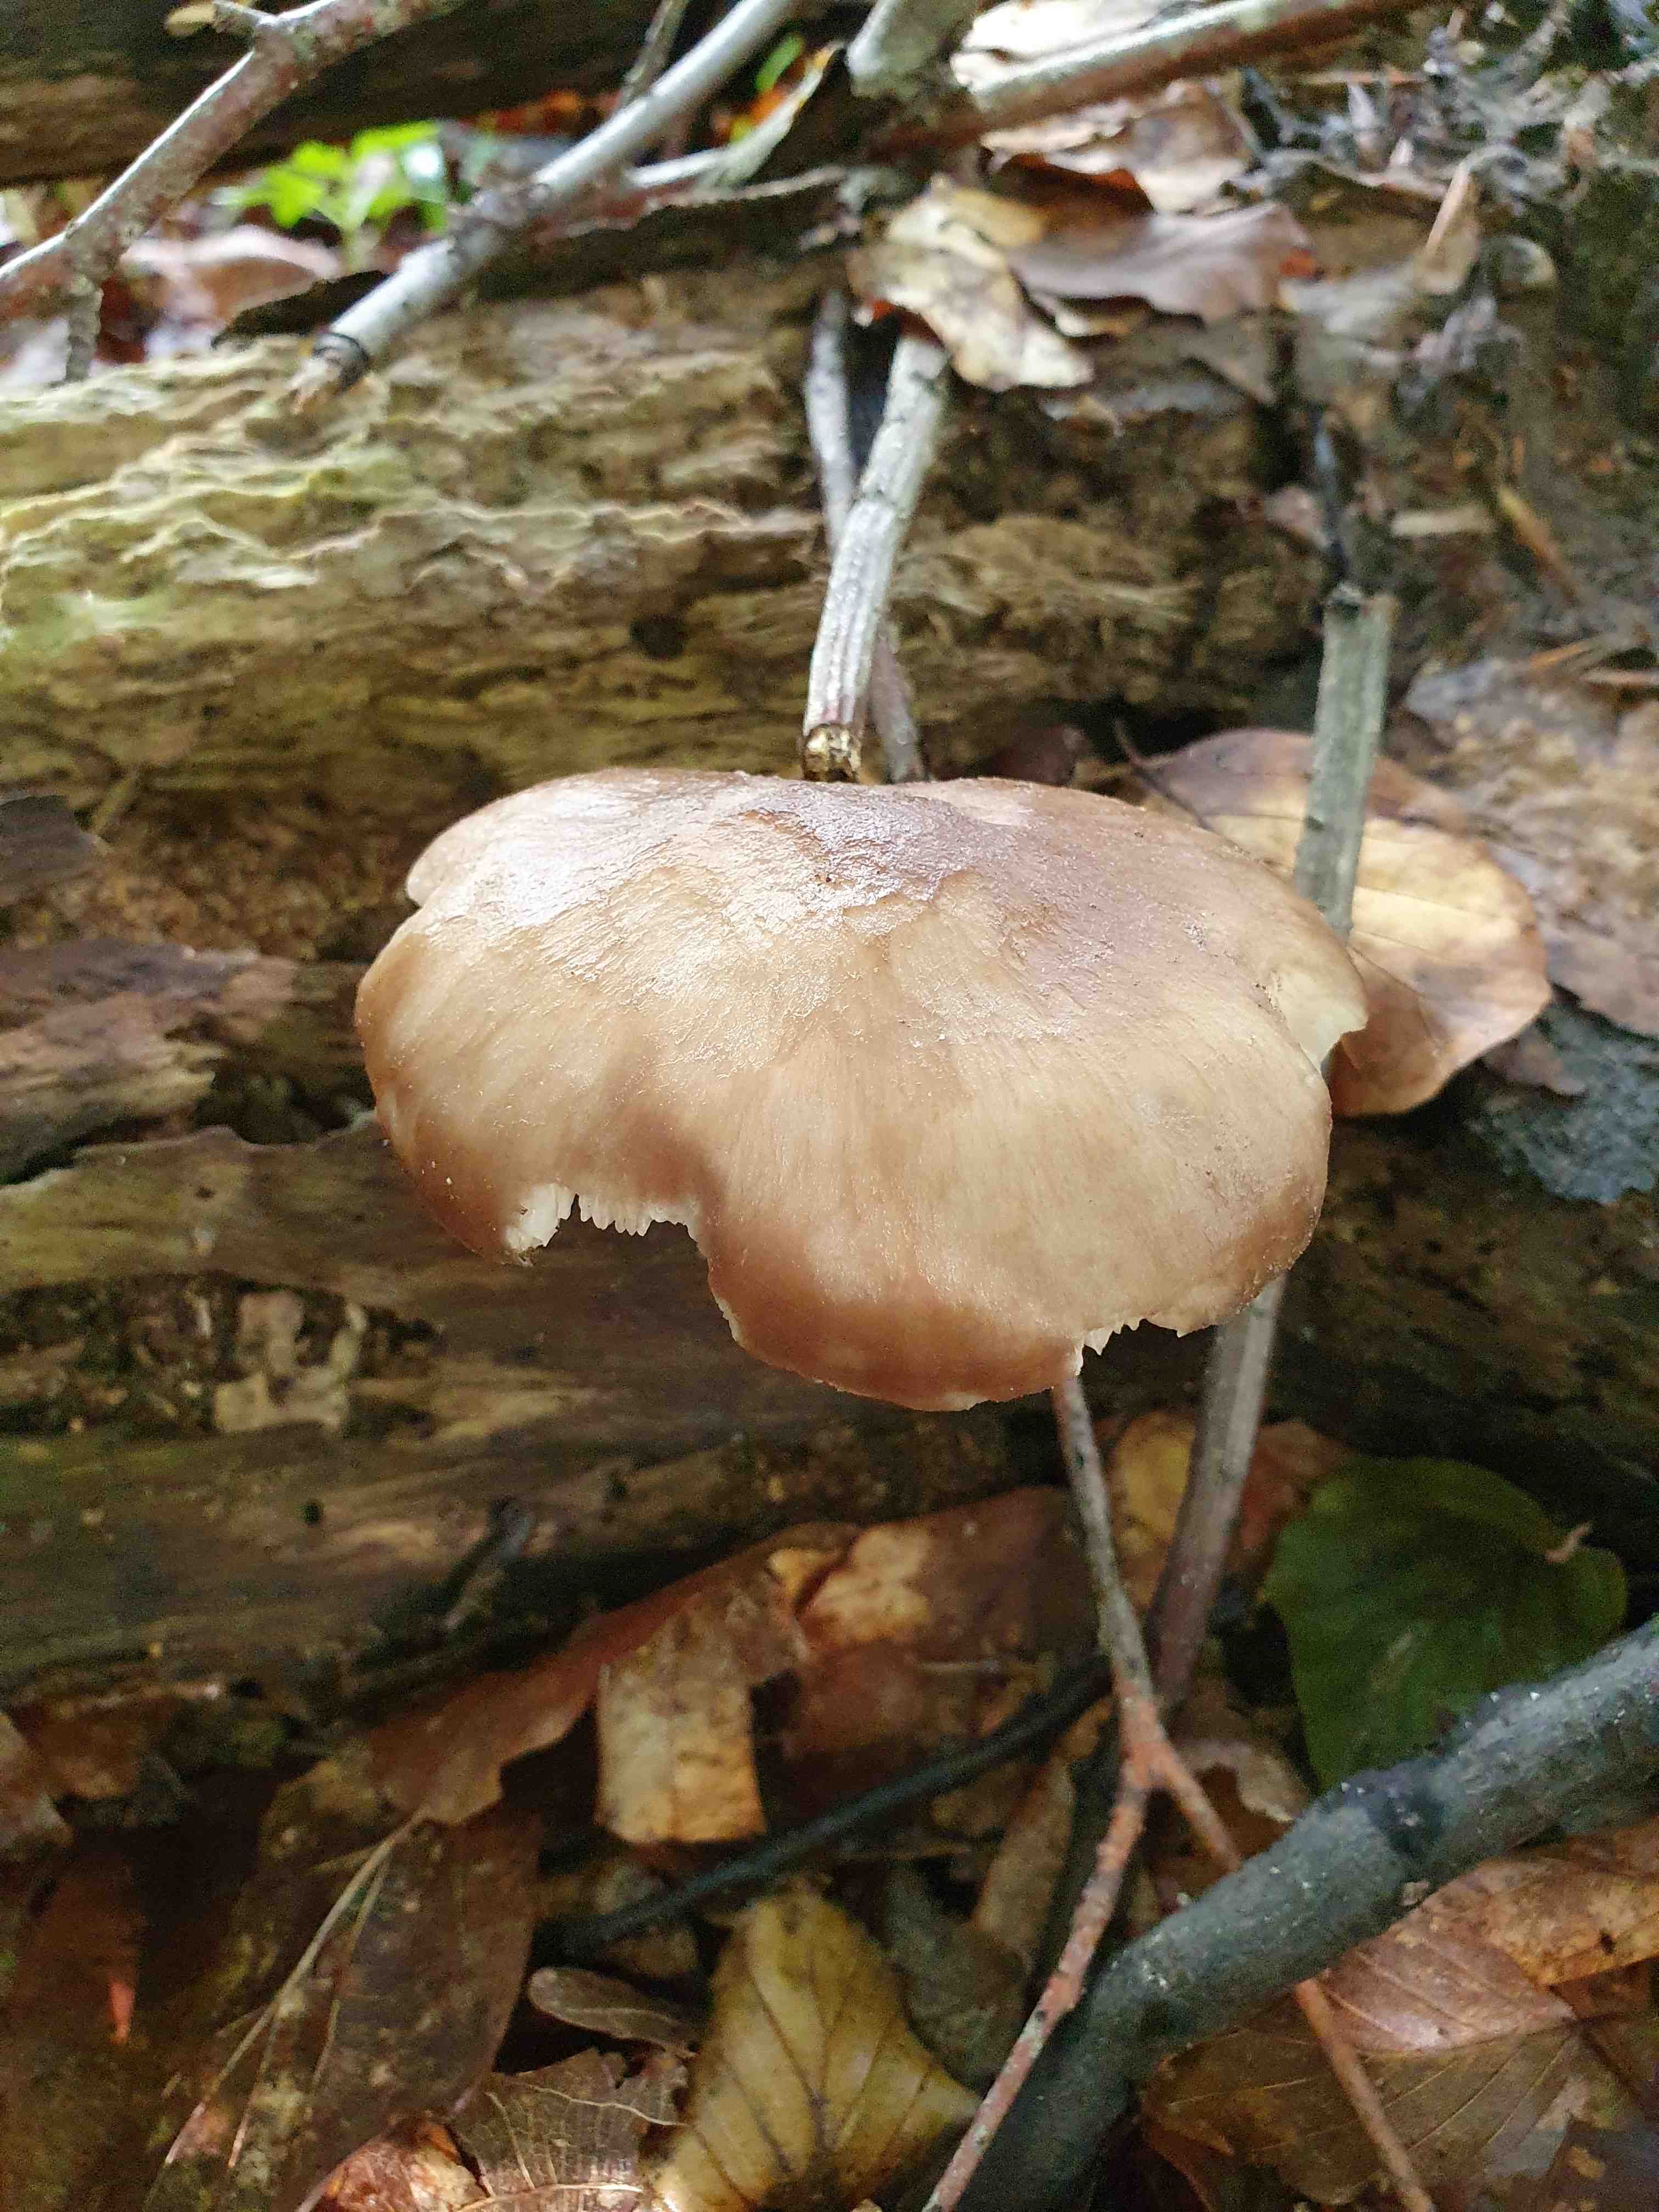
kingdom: Fungi
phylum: Basidiomycota
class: Agaricomycetes
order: Agaricales
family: Pluteaceae
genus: Pluteus
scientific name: Pluteus cervinus
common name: sodfarvet skærmhat
